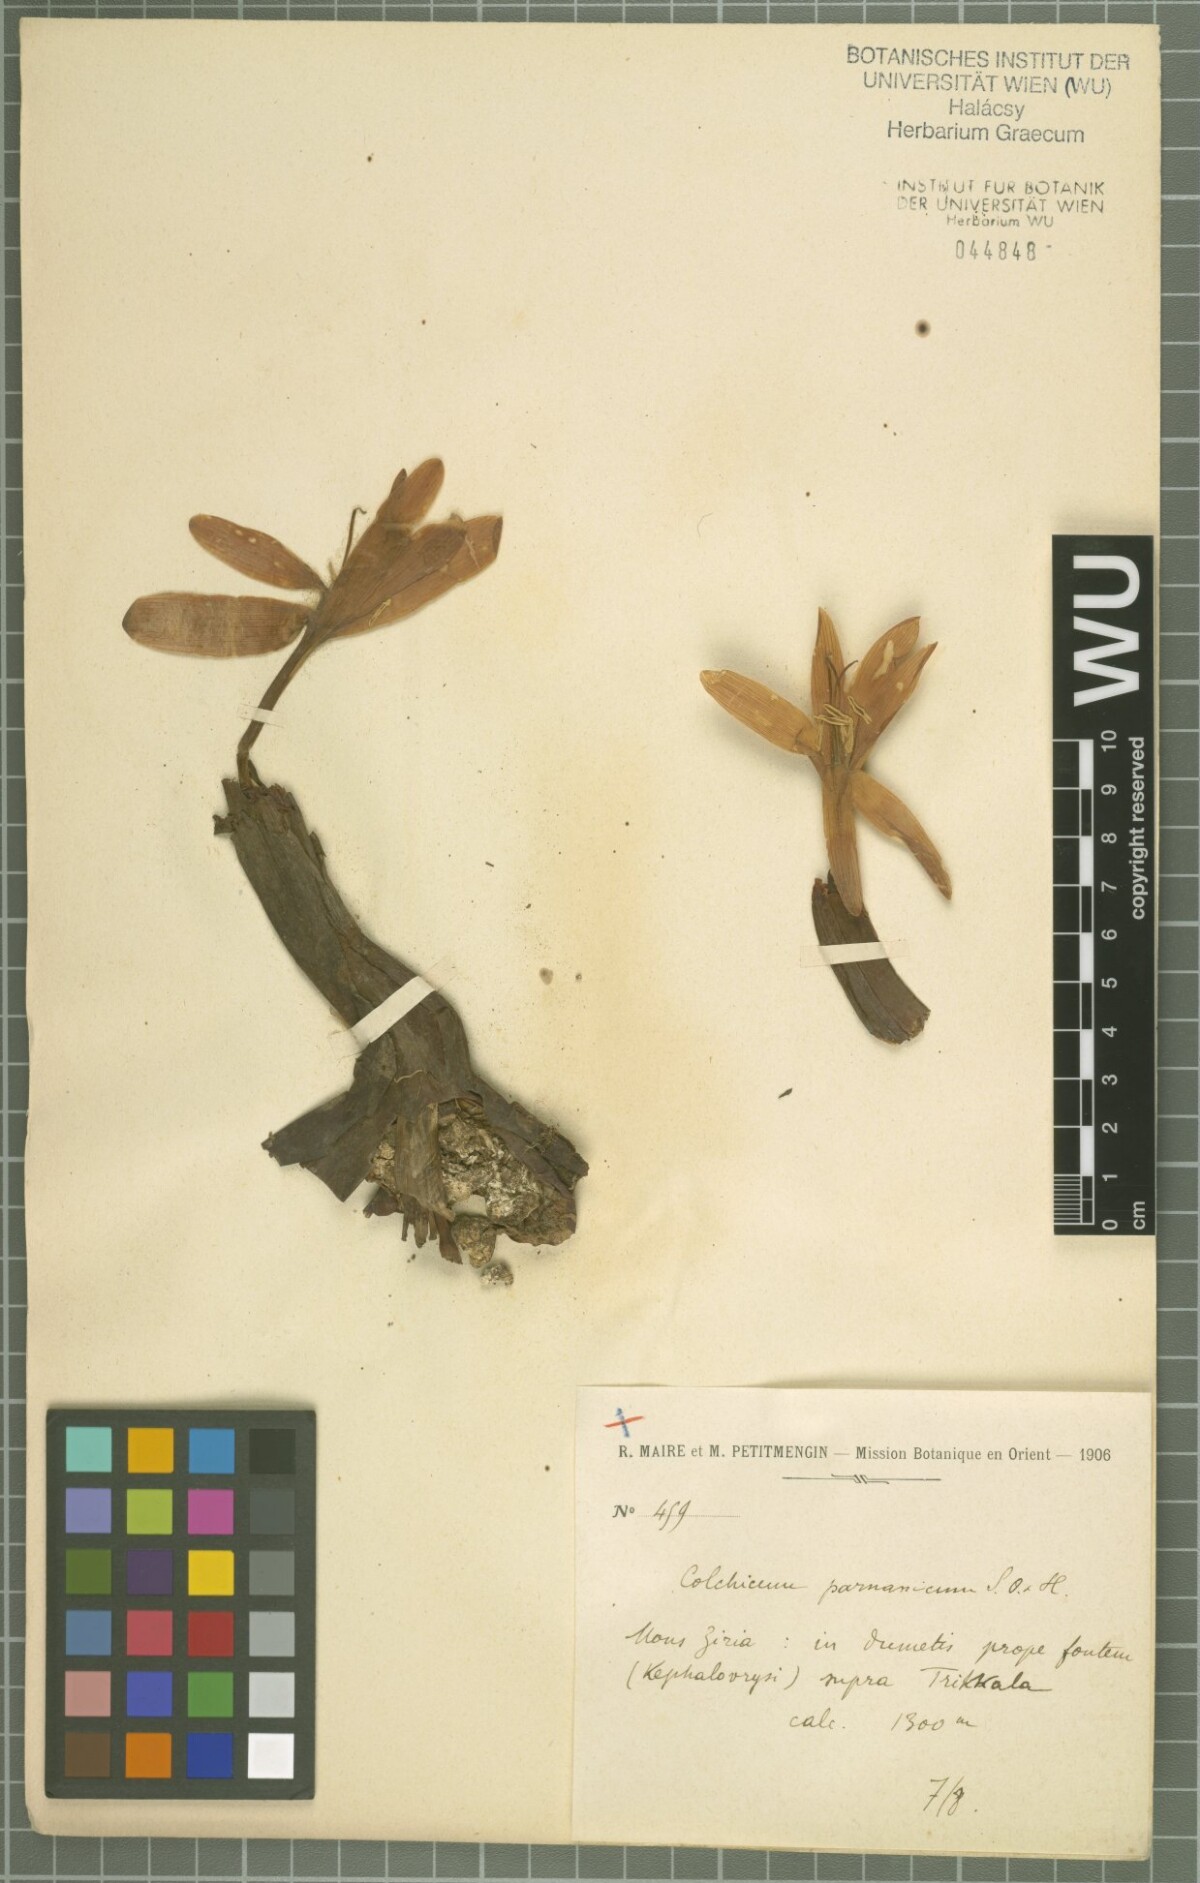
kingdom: Plantae
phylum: Tracheophyta
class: Liliopsida
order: Liliales
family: Colchicaceae
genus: Colchicum
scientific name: Colchicum graecum
